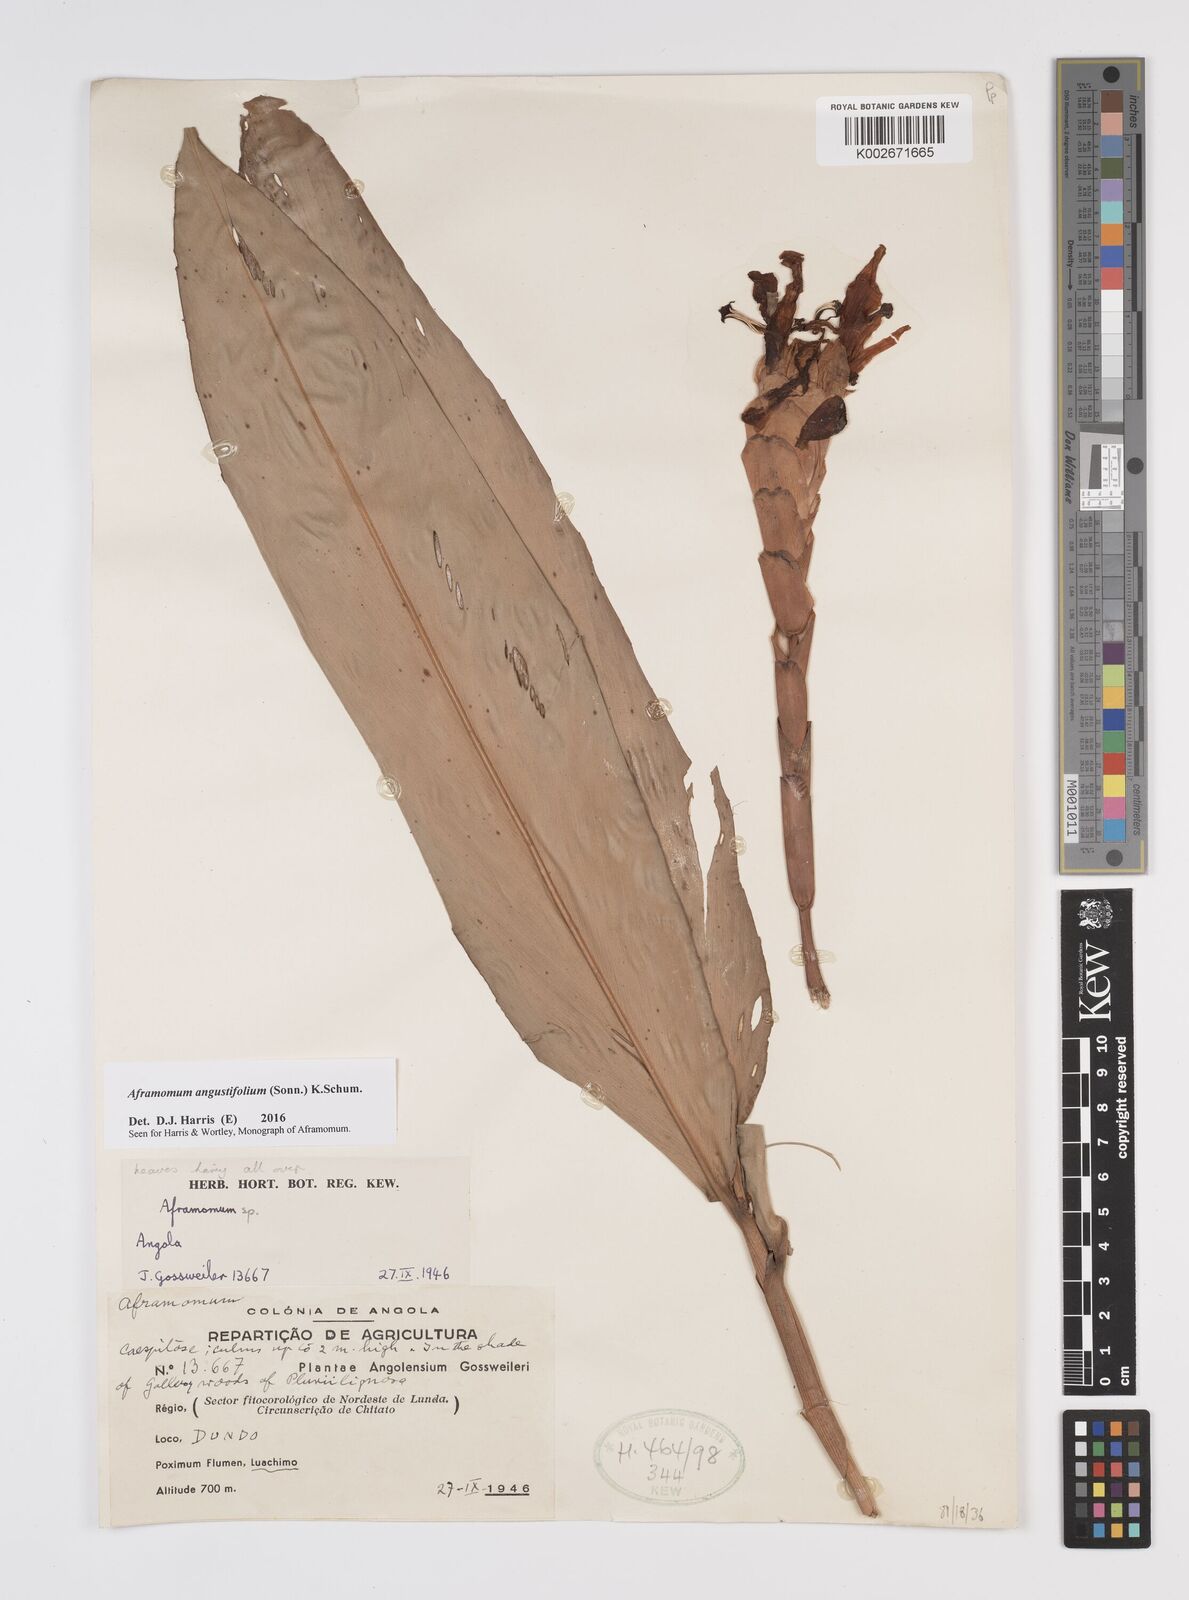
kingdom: Plantae
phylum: Tracheophyta
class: Liliopsida
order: Zingiberales
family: Zingiberaceae
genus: Aframomum
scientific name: Aframomum angustifolium
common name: Guinea grains
